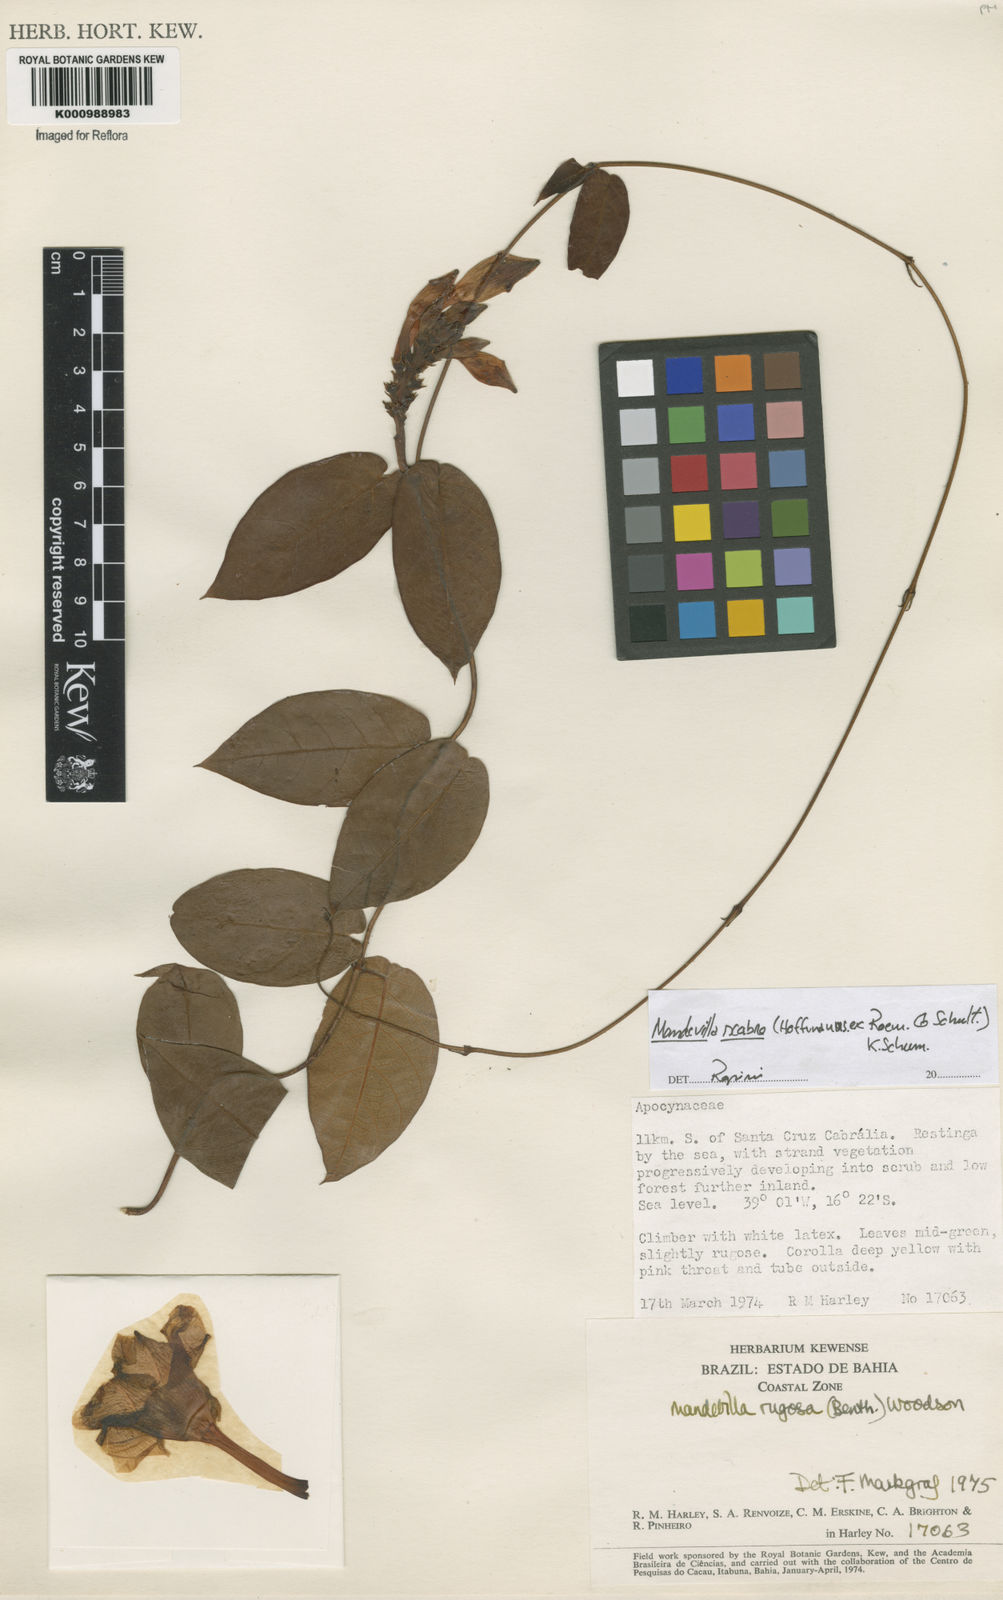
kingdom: Plantae
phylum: Tracheophyta
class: Magnoliopsida
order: Gentianales
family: Apocynaceae
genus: Mandevilla
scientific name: Mandevilla rugosa
